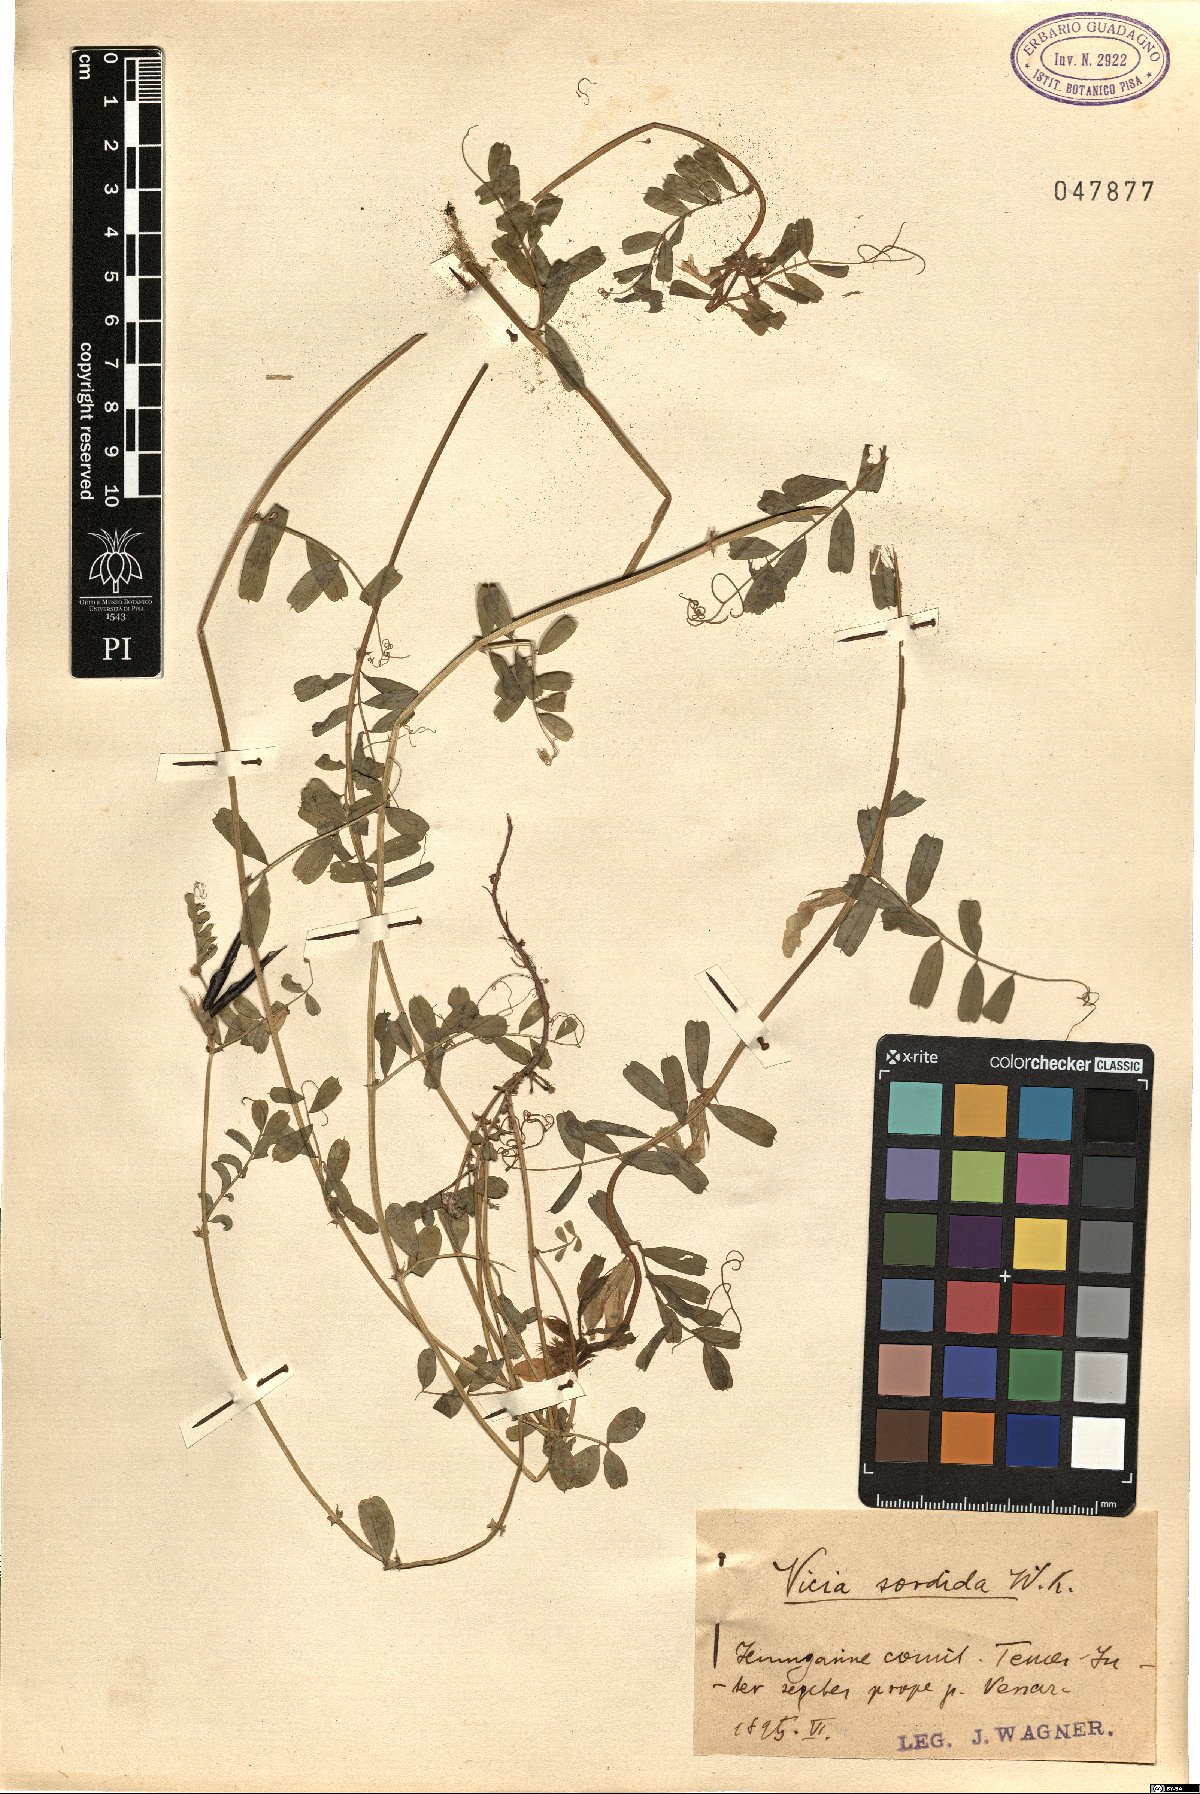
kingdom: Plantae
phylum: Tracheophyta
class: Magnoliopsida
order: Fabales
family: Fabaceae
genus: Vicia
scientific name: Vicia grandiflora
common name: Large yellow vetch
